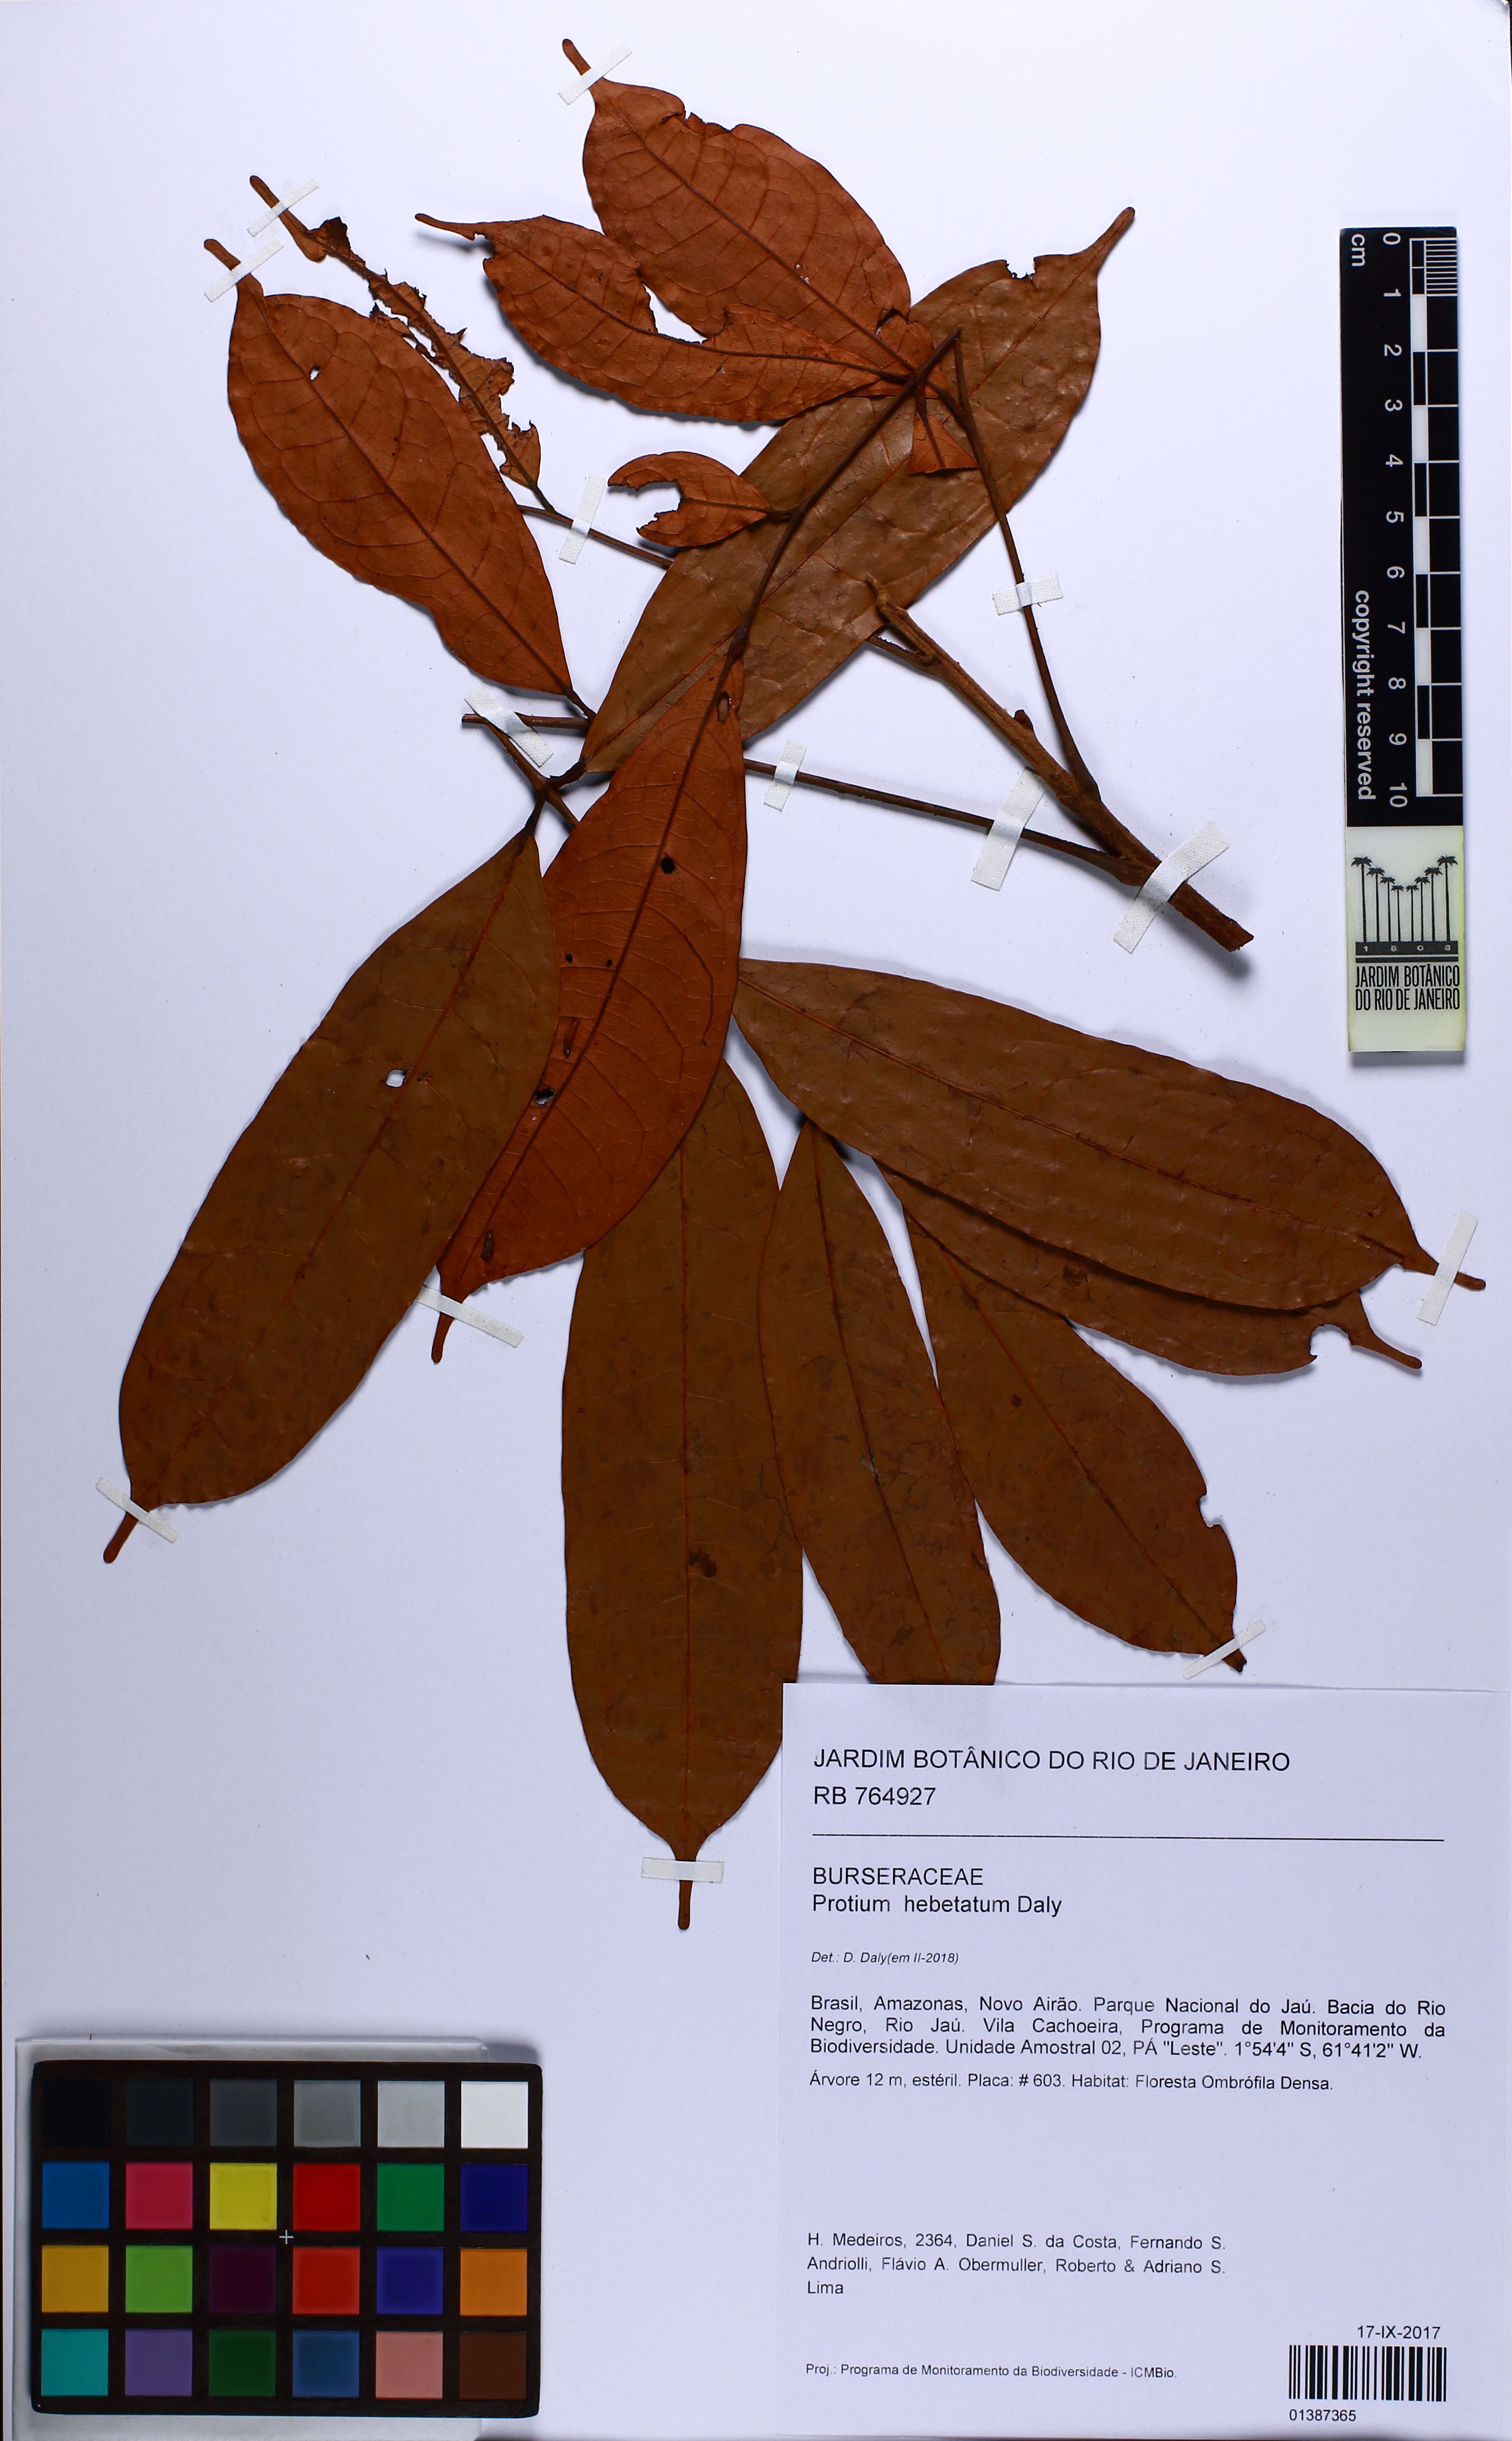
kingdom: Plantae
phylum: Tracheophyta
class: Magnoliopsida
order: Sapindales
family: Burseraceae
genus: Protium
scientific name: Protium hebetatum
